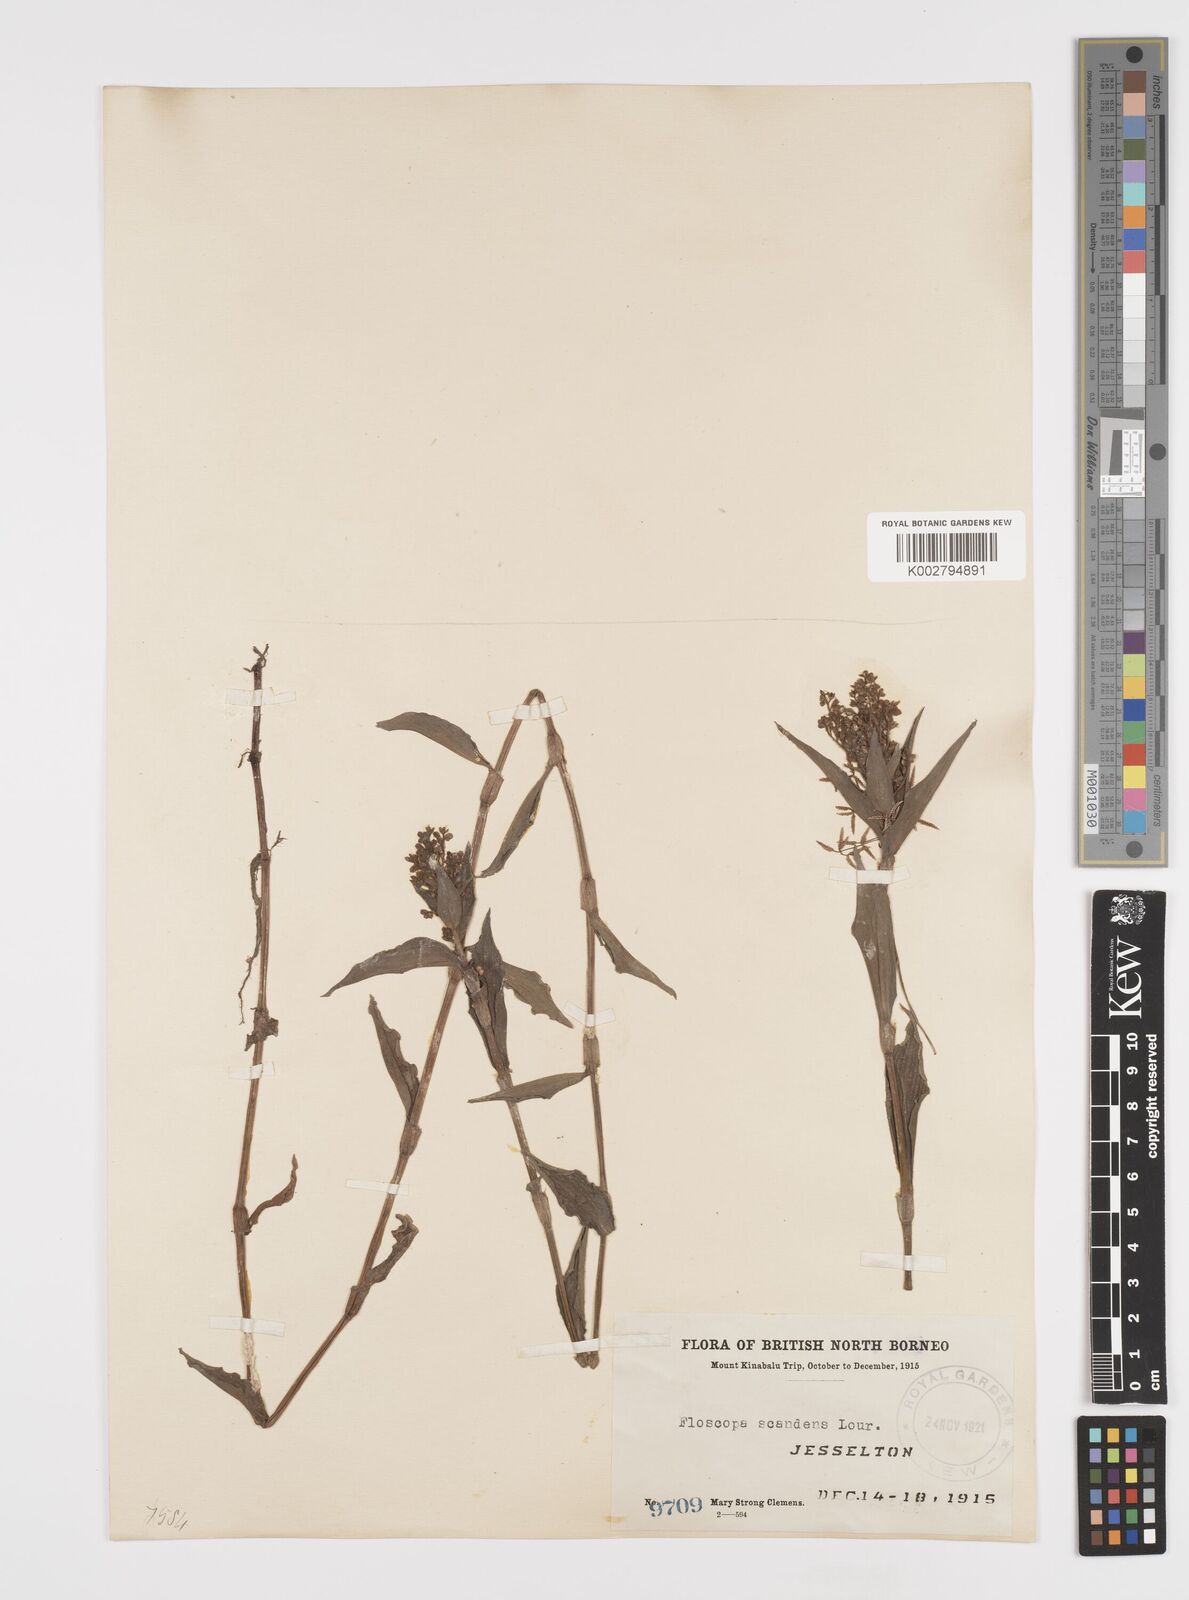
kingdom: Plantae
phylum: Tracheophyta
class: Liliopsida
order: Commelinales
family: Commelinaceae
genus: Floscopa
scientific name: Floscopa scandens
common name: Climbing flower cup
